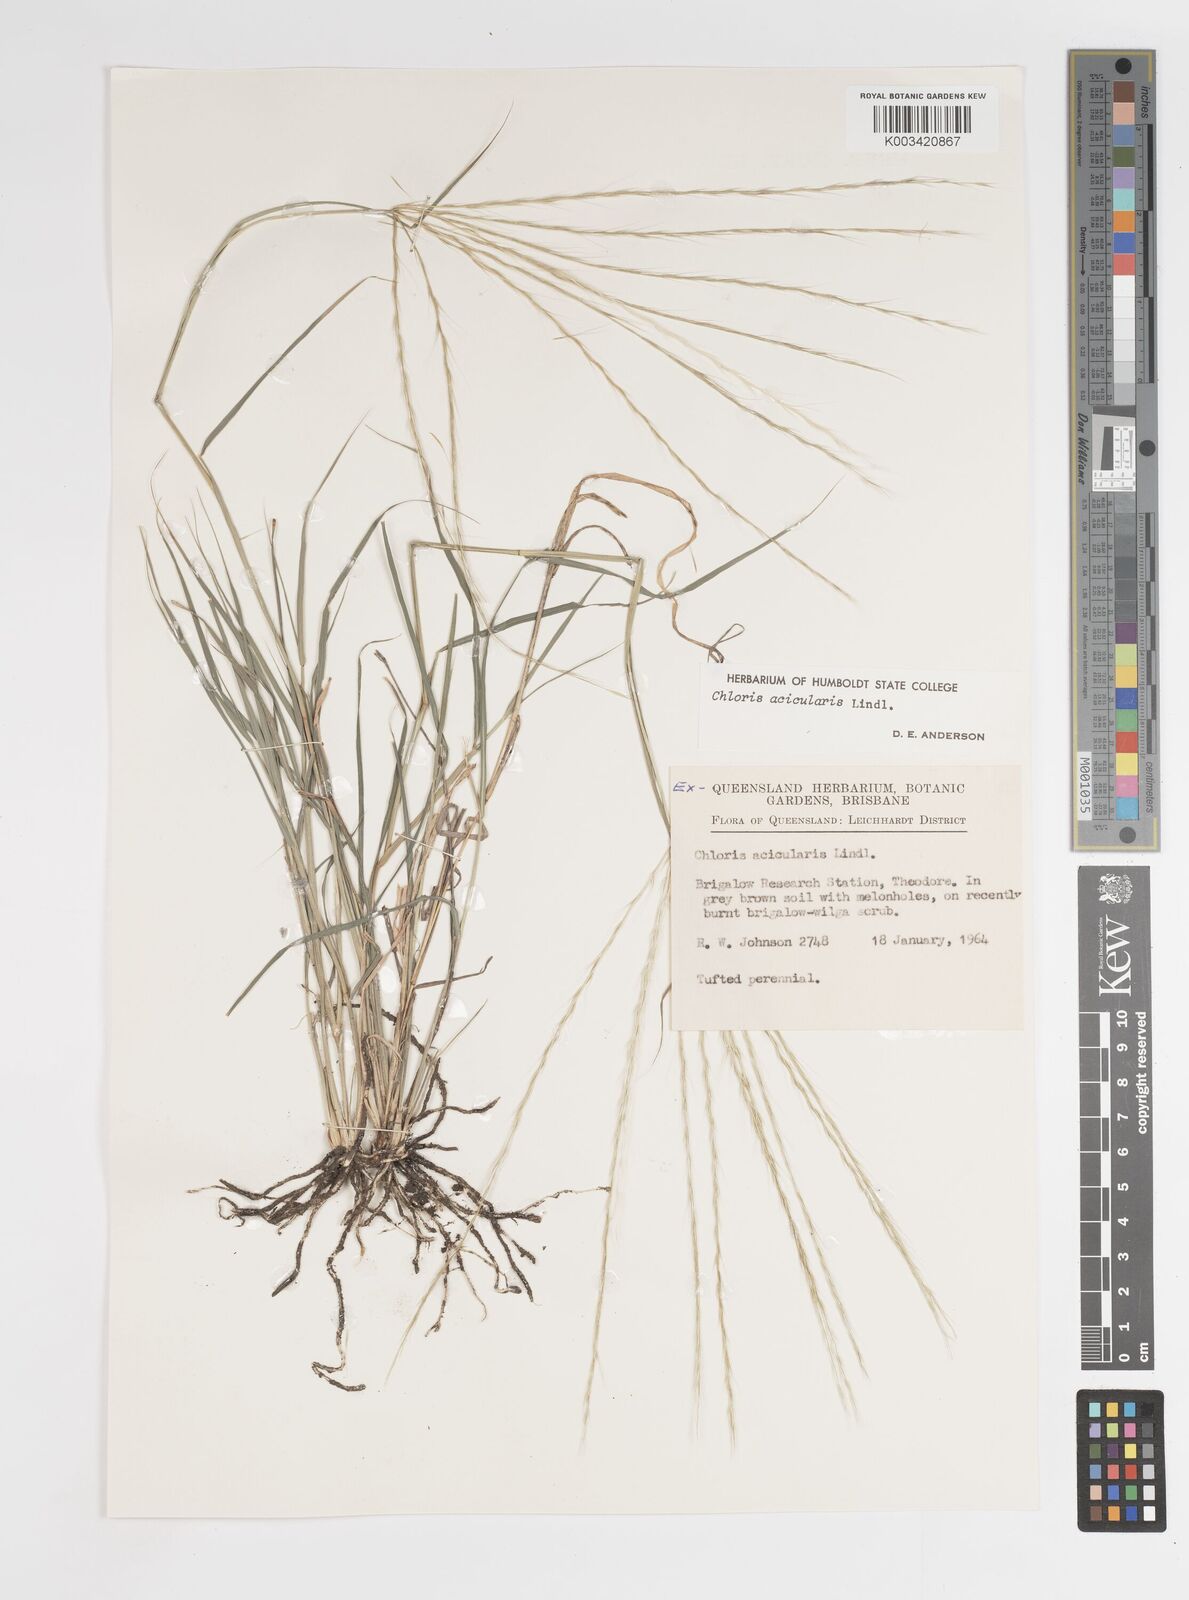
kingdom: Plantae
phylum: Tracheophyta
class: Liliopsida
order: Poales
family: Poaceae
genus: Enteropogon
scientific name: Enteropogon acicularis
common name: Curly windmill grass
